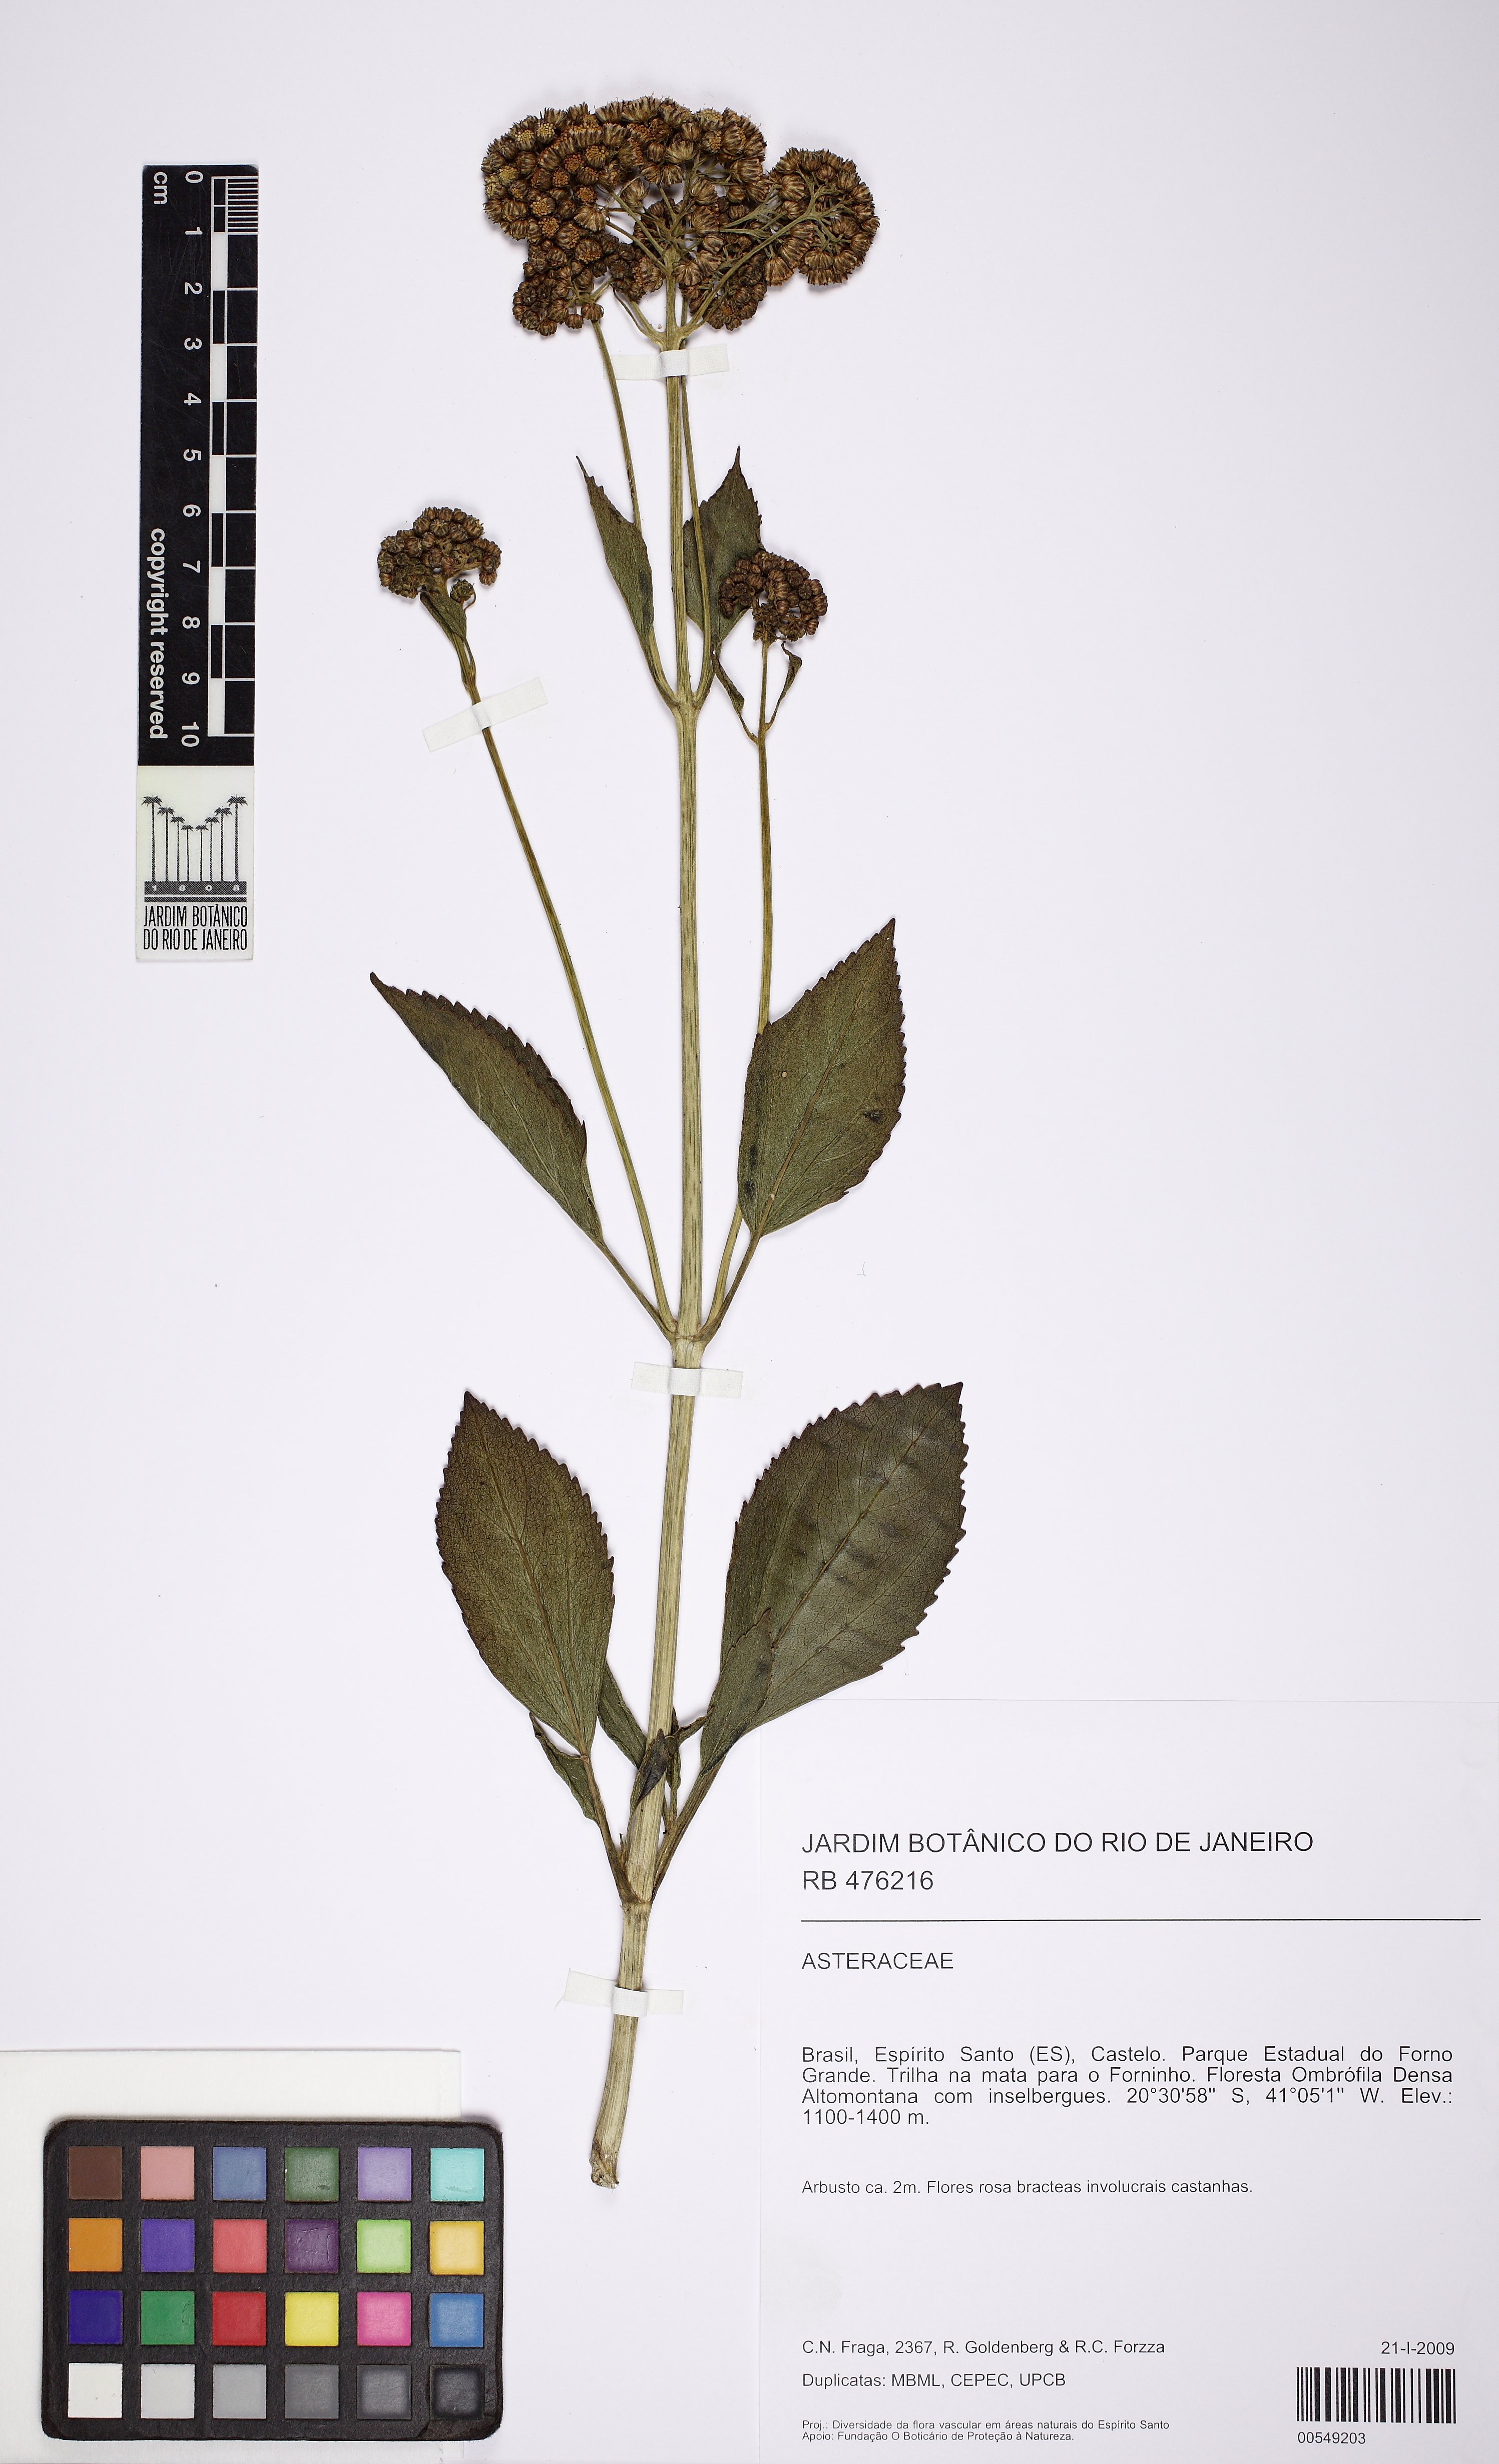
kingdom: Plantae
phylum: Tracheophyta
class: Magnoliopsida
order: Asterales
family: Asteraceae
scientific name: Asteraceae
